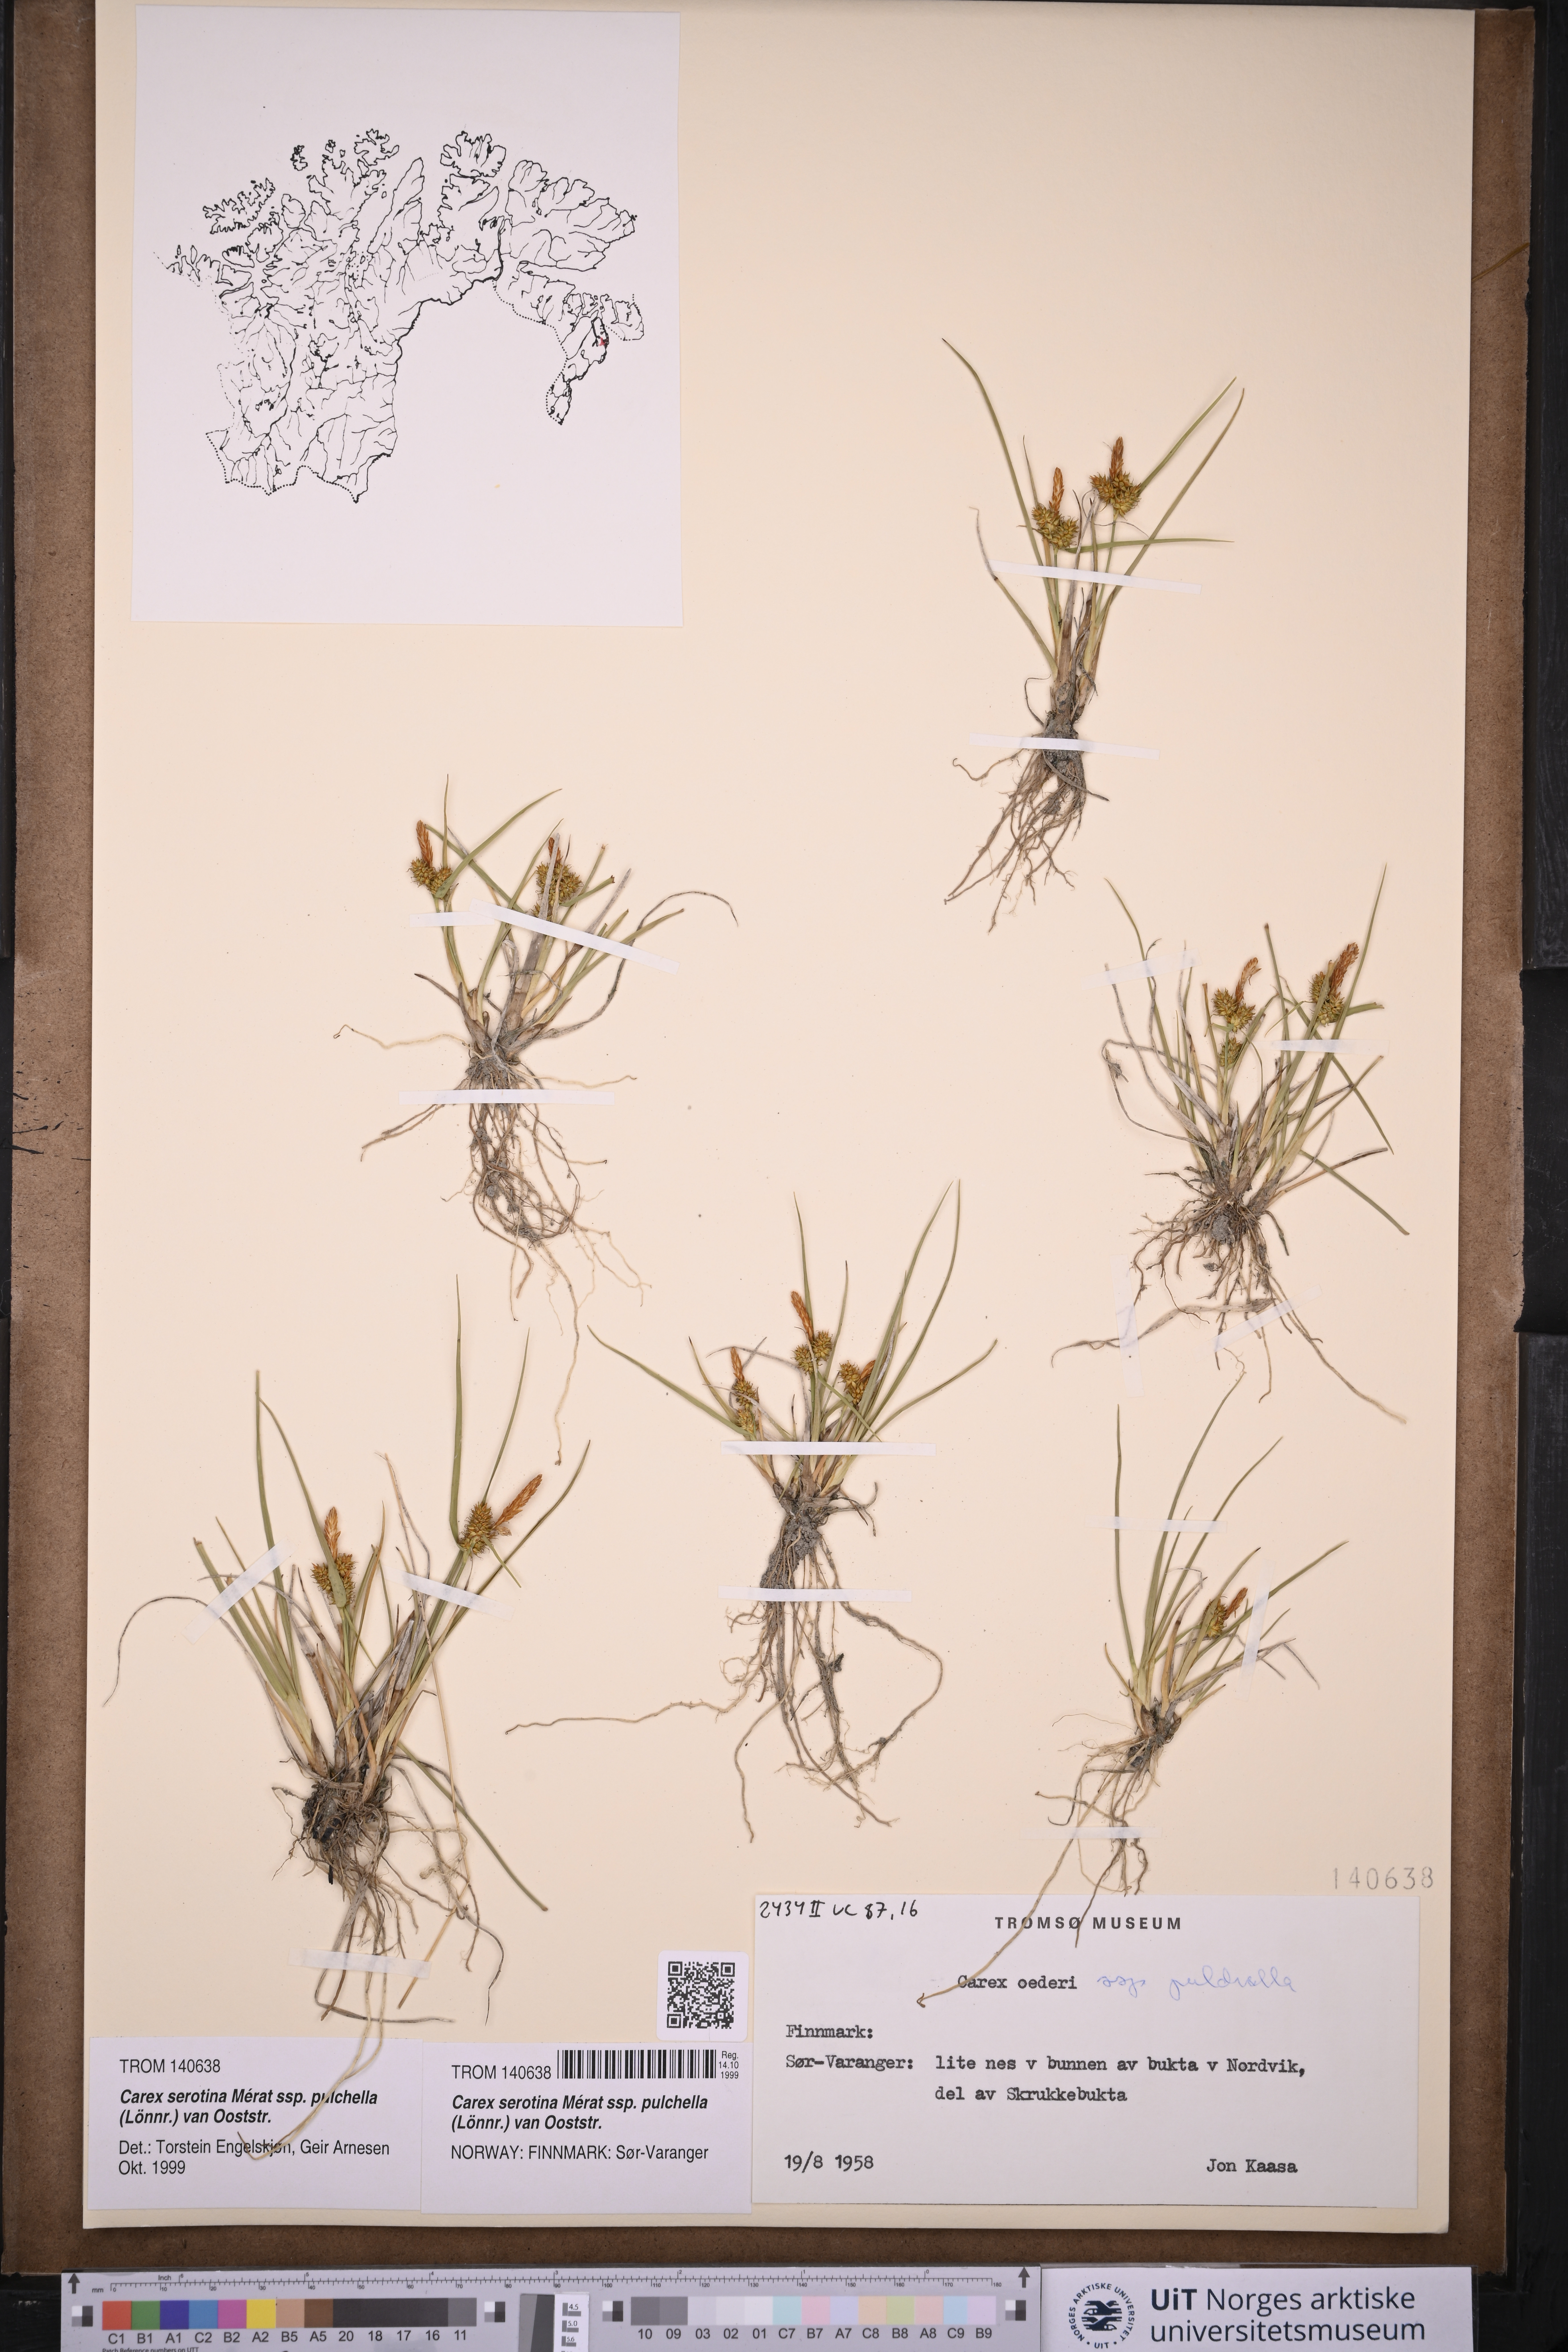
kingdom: Plantae
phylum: Tracheophyta
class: Liliopsida
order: Poales
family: Cyperaceae
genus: Carex
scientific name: Carex oederi
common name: Common & small-fruited yellow-sedge
